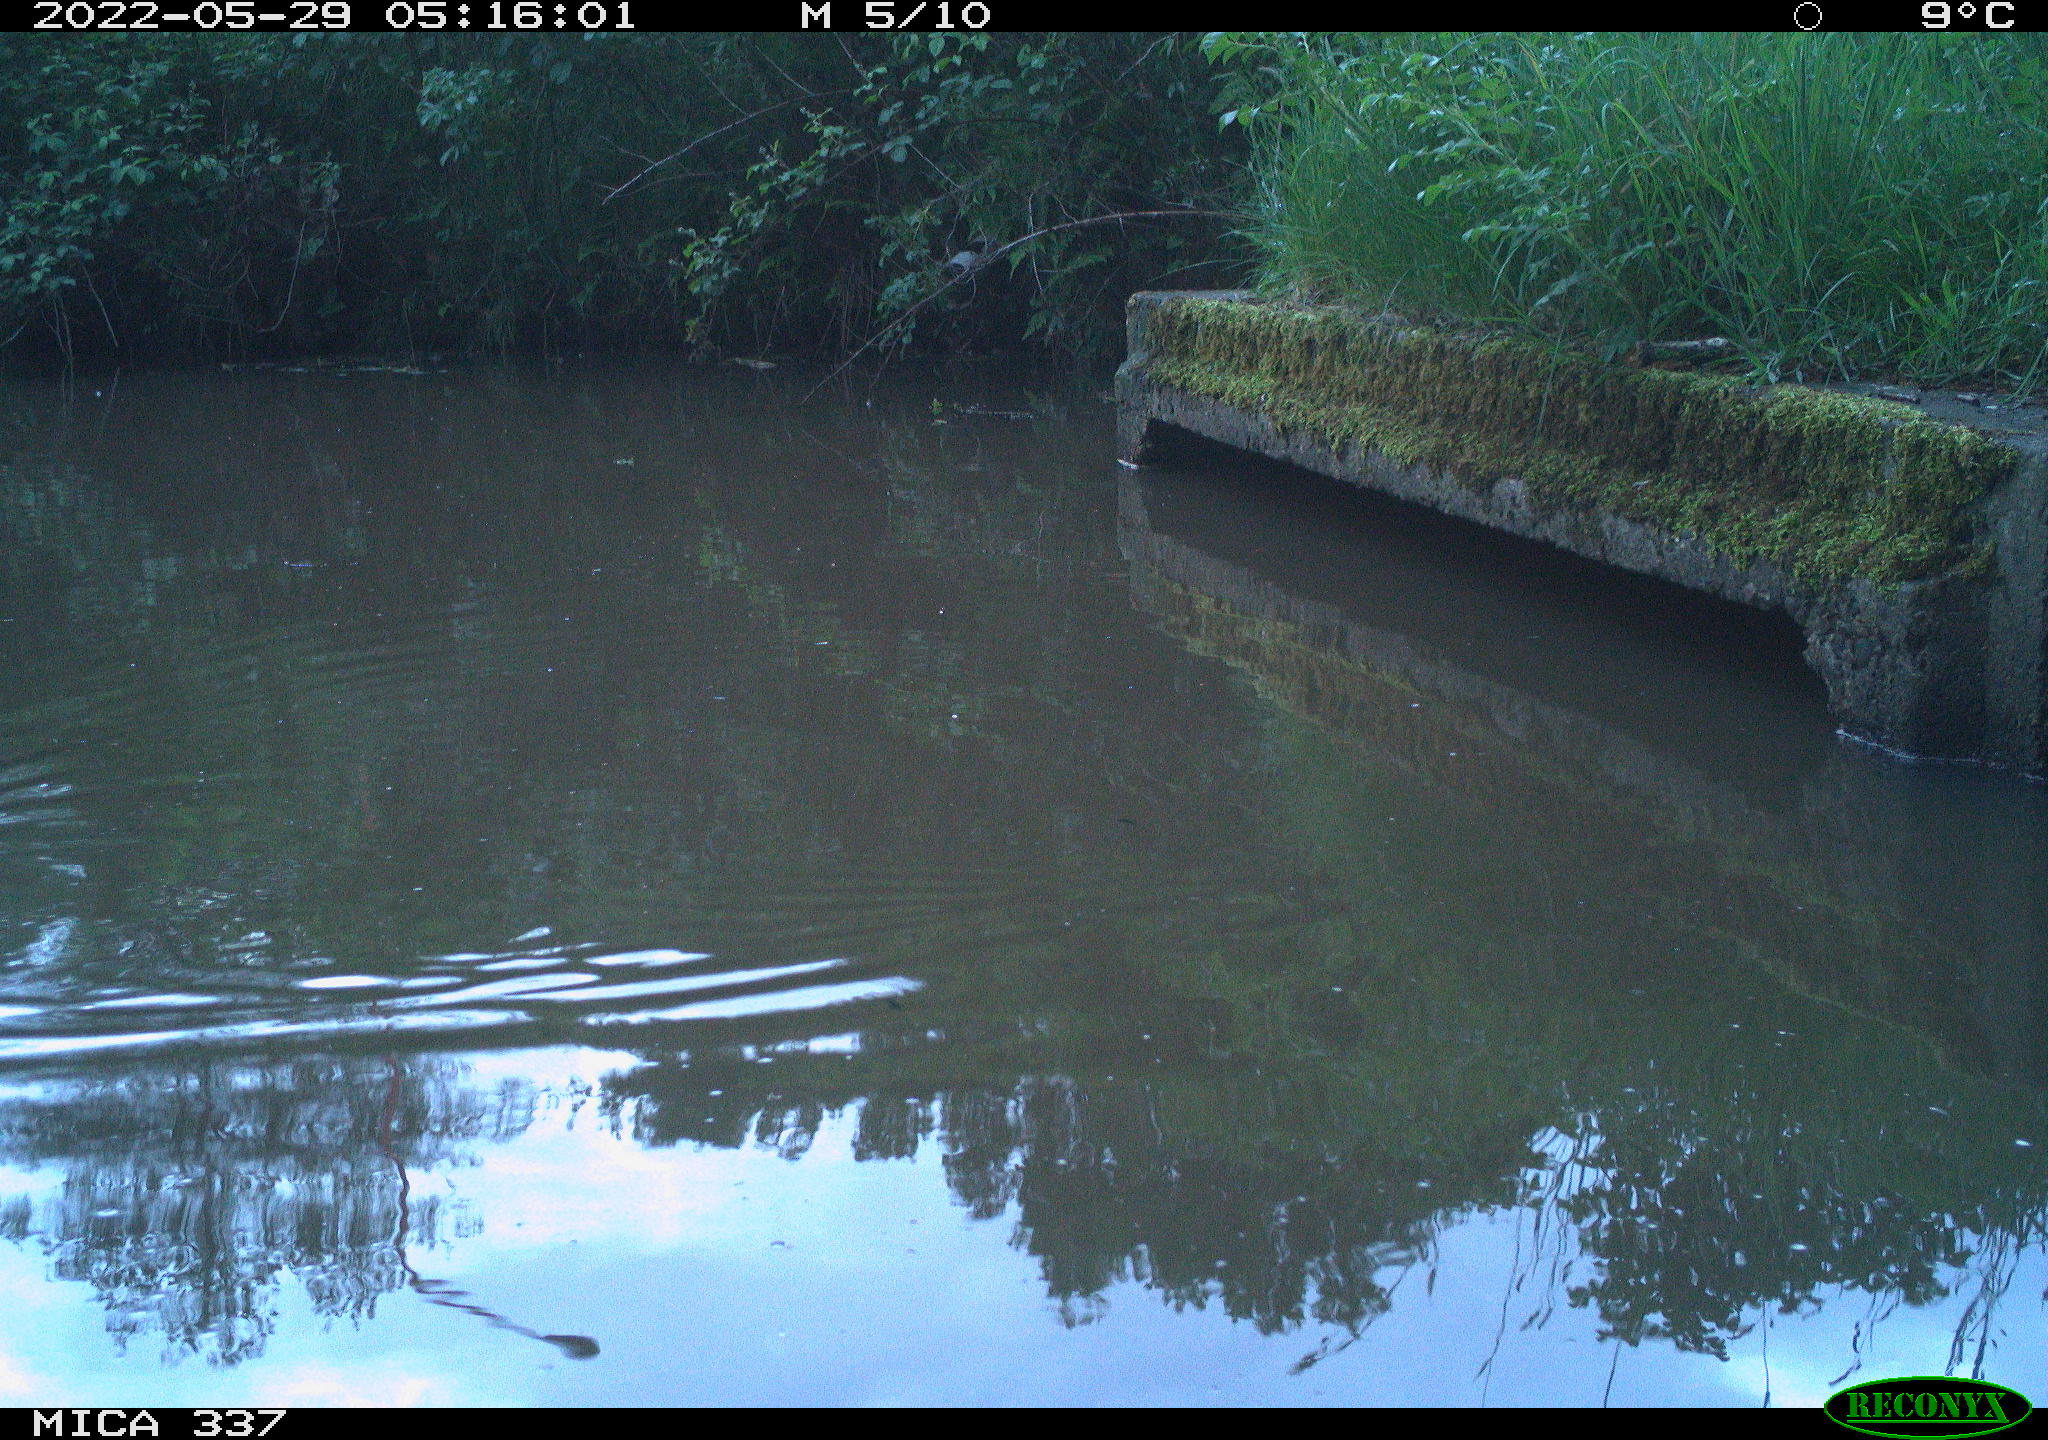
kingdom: Animalia
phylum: Chordata
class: Aves
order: Gruiformes
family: Rallidae
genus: Gallinula
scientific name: Gallinula chloropus
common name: Common moorhen
